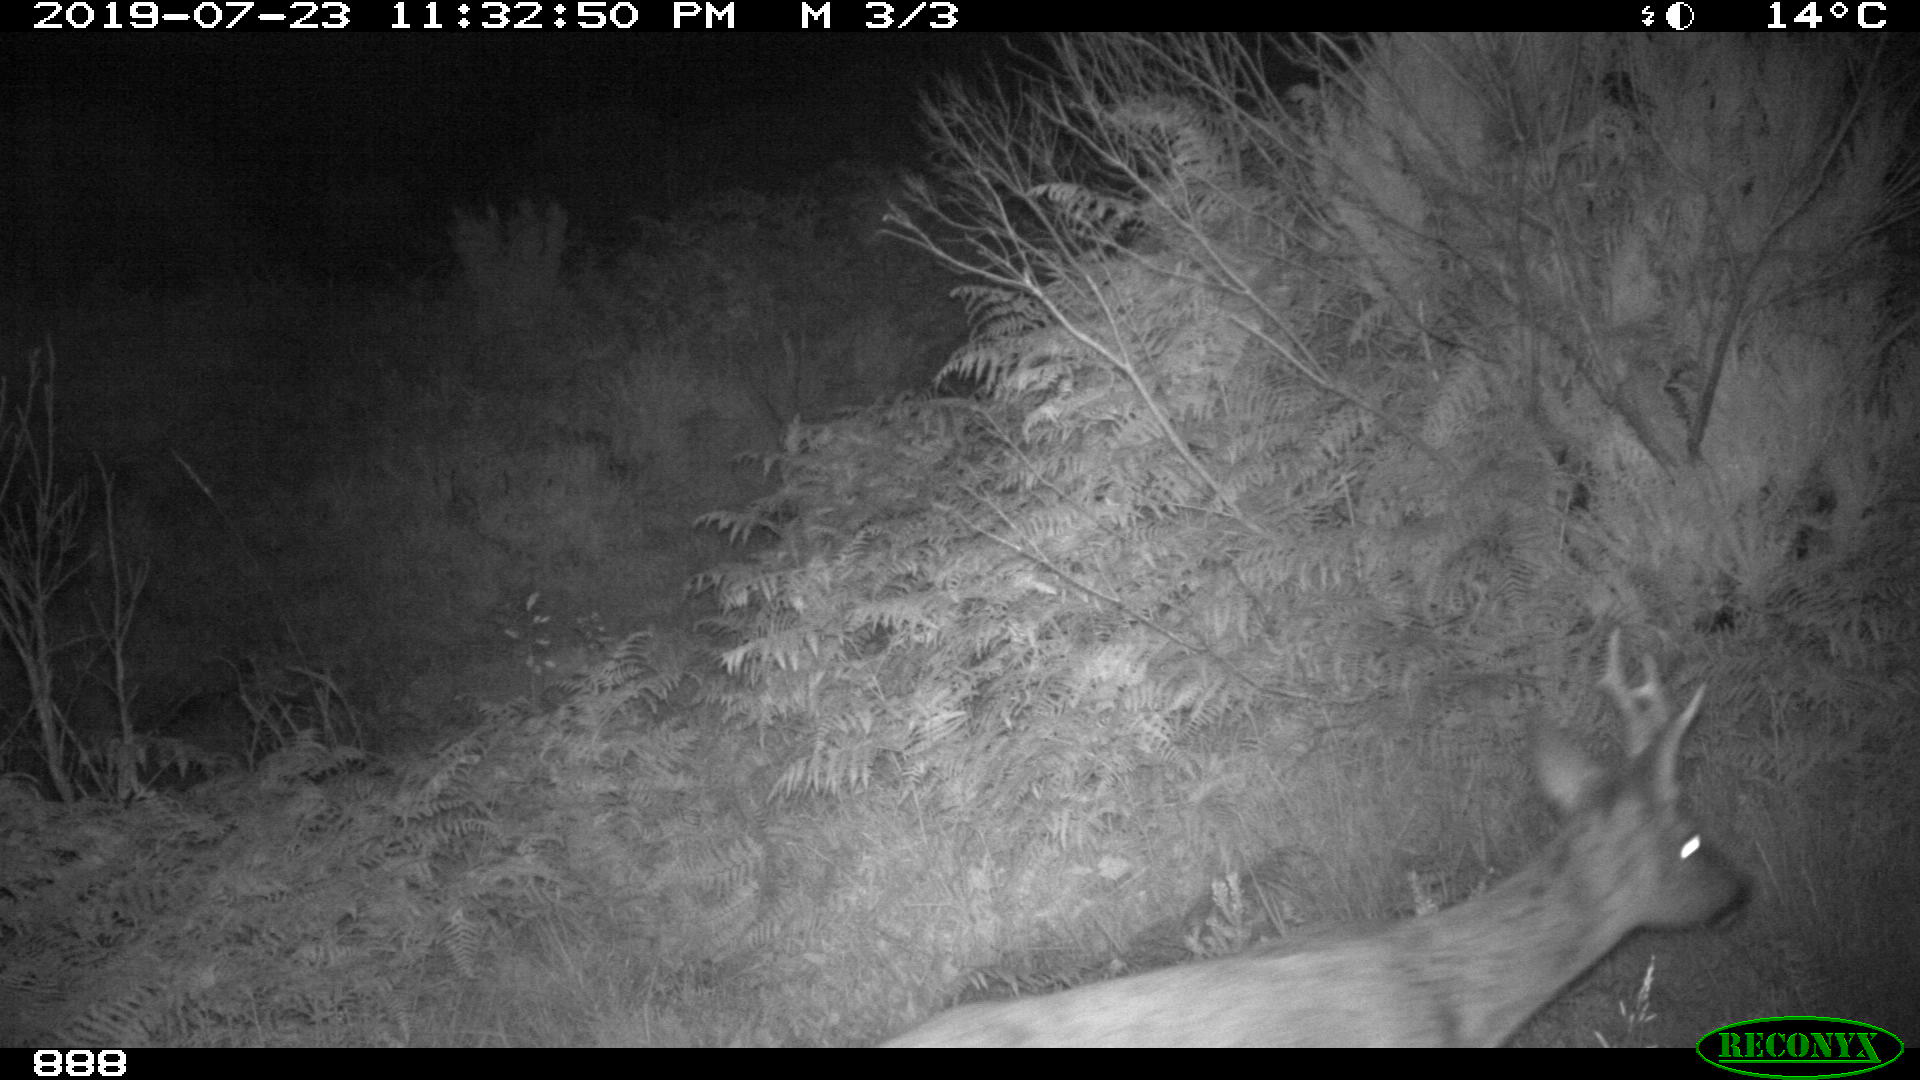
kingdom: Animalia
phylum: Chordata
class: Mammalia
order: Artiodactyla
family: Cervidae
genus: Capreolus
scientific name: Capreolus capreolus
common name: Western roe deer
